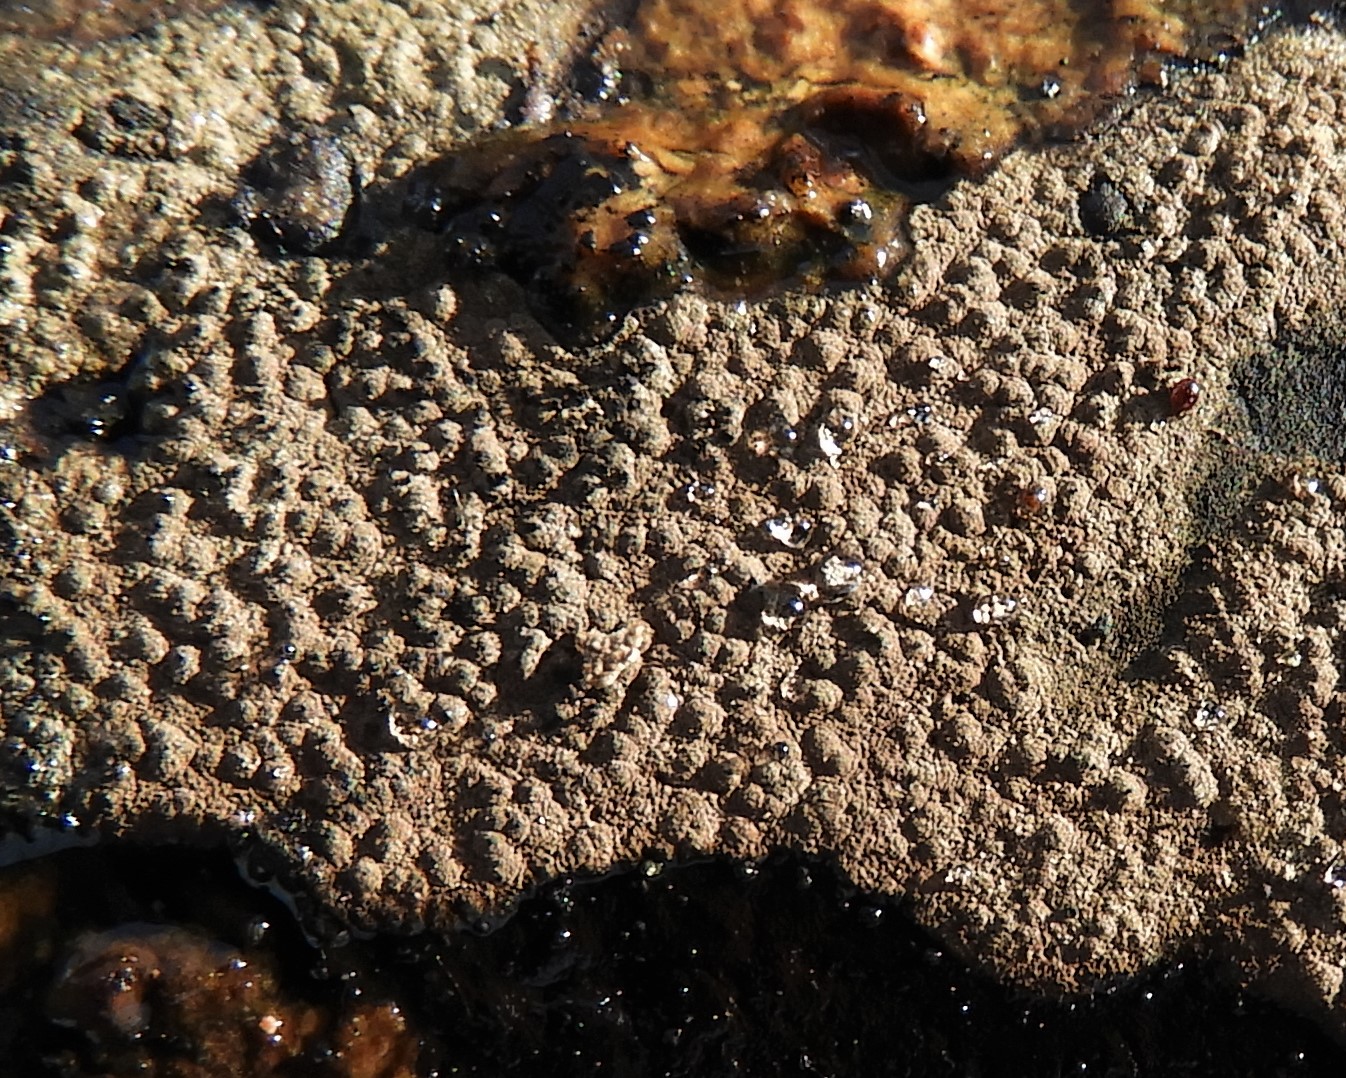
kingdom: Fungi
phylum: Ascomycota
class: Sordariomycetes
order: Xylariales
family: Hypoxylaceae
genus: Hypoxylon
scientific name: Hypoxylon petriniae
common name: nedsænket kulbær
